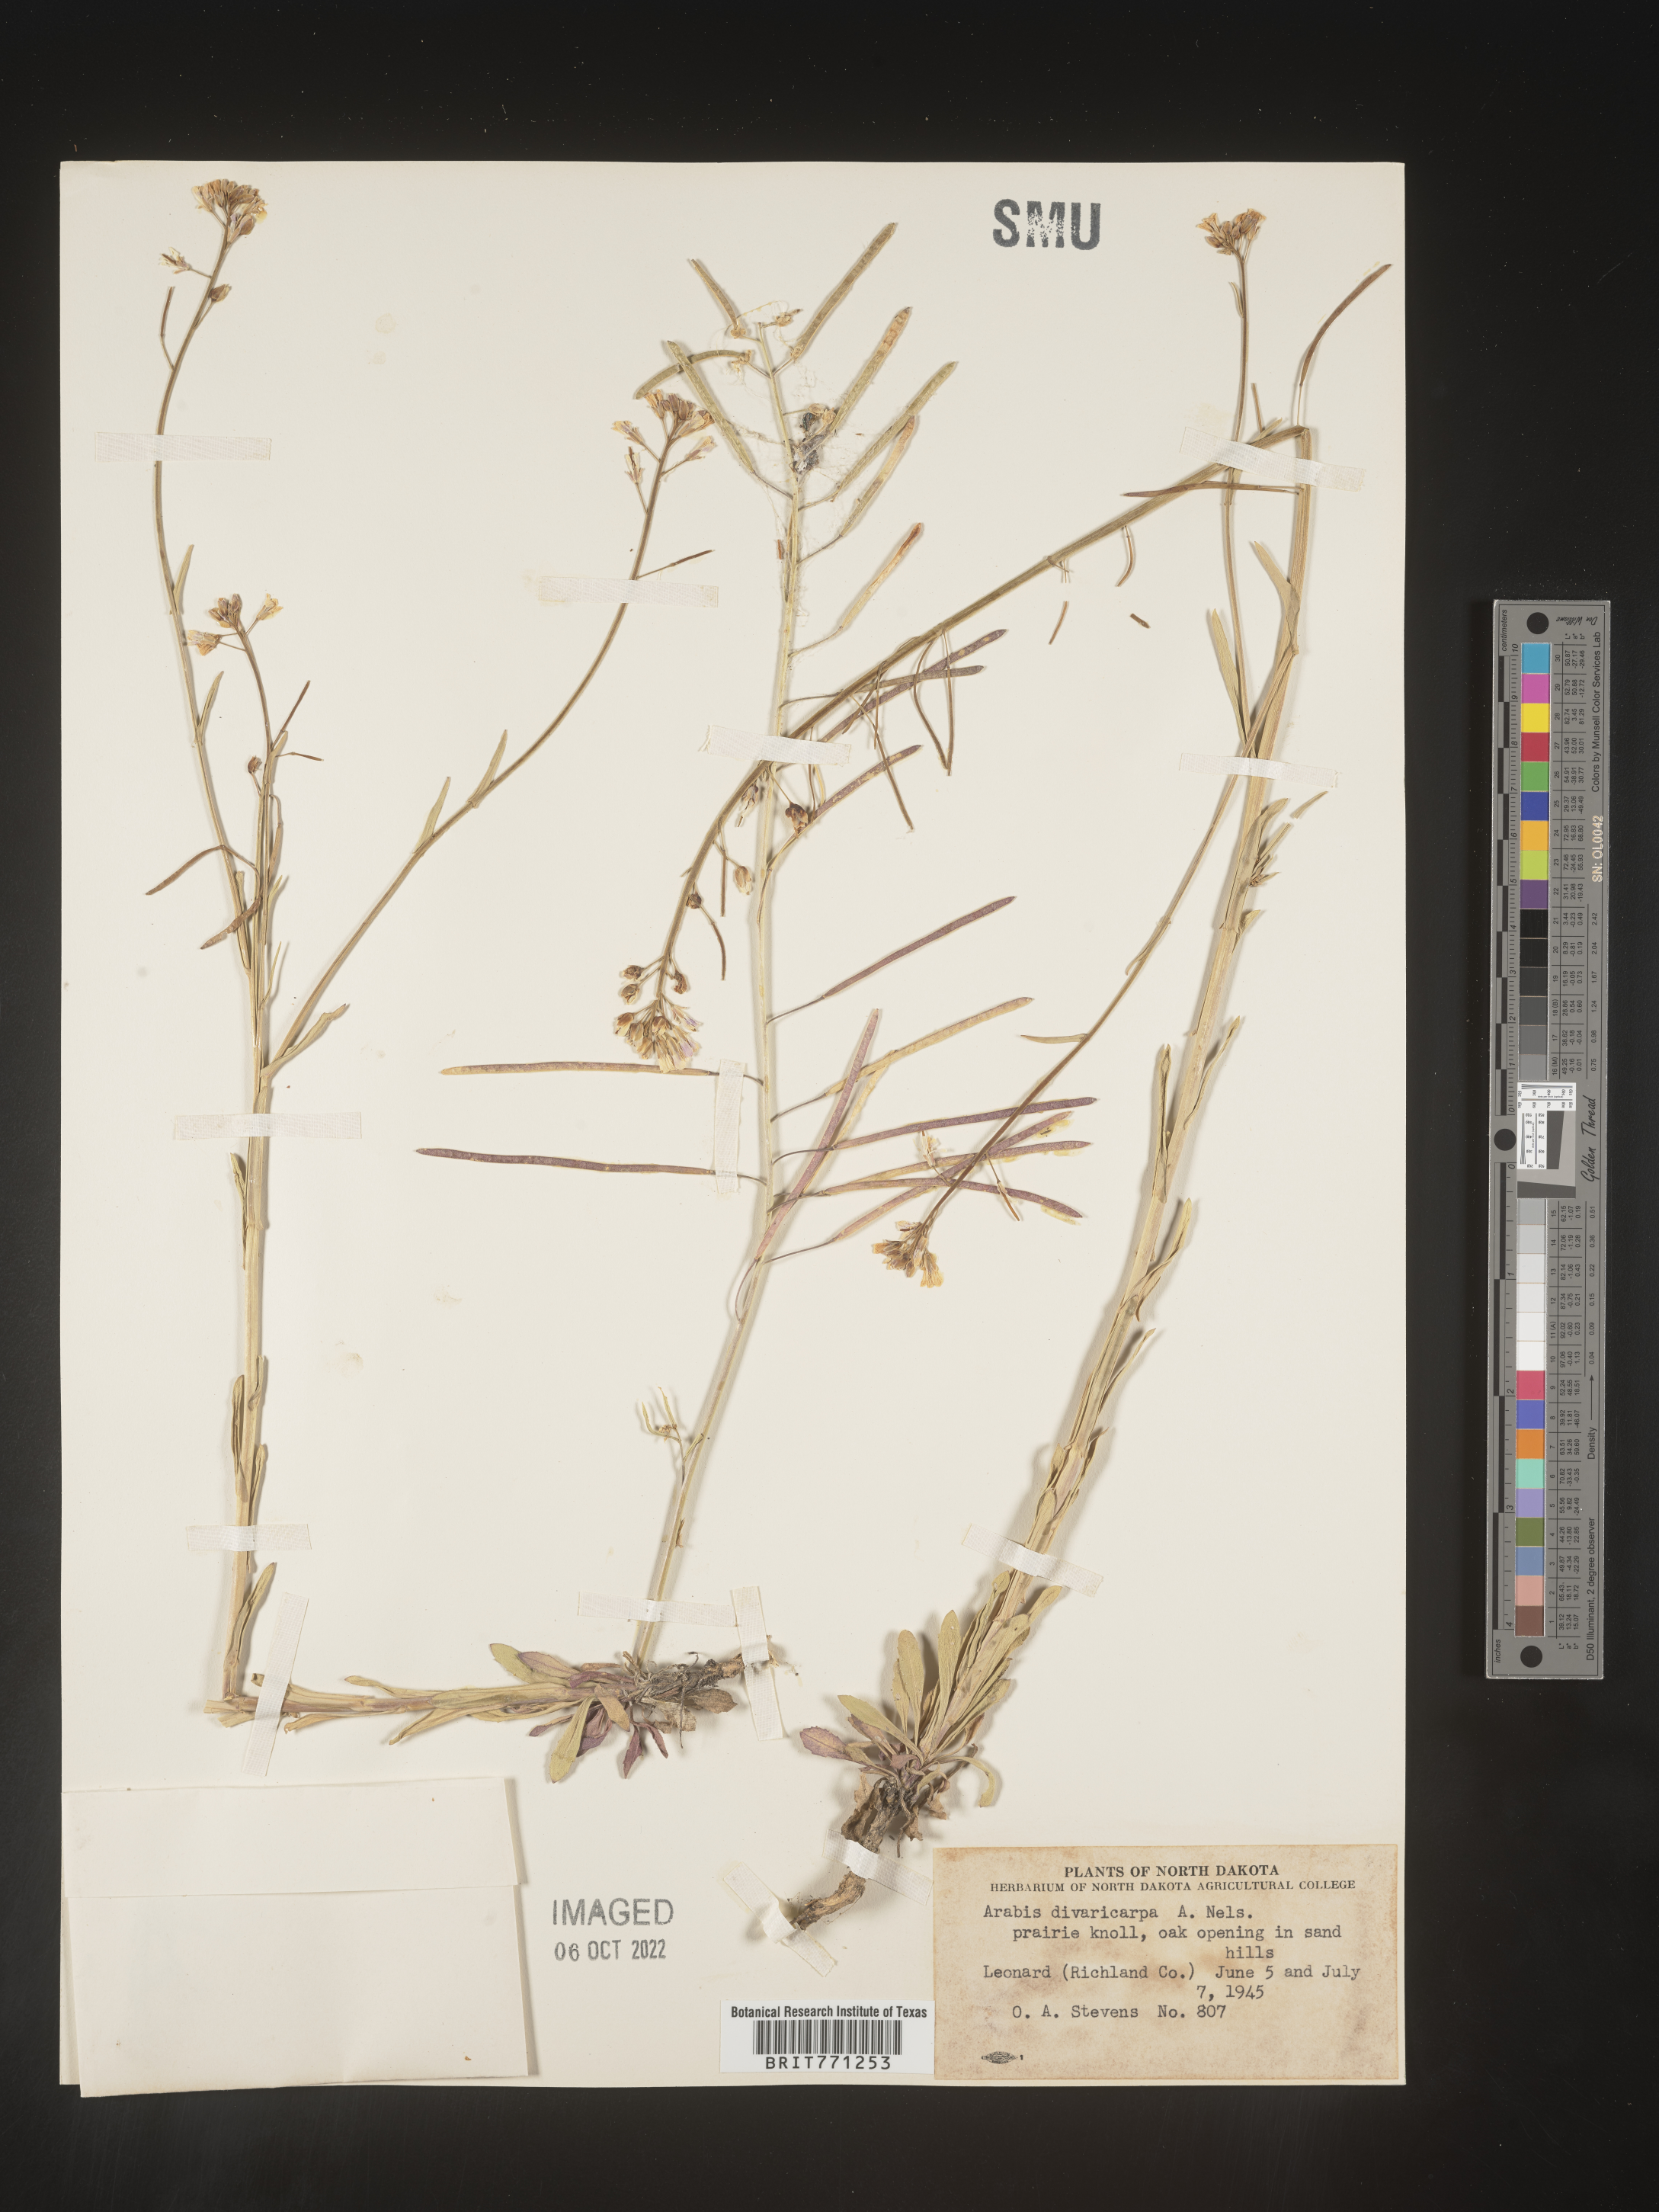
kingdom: Plantae
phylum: Tracheophyta
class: Magnoliopsida
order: Brassicales
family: Brassicaceae
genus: Boechera
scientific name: Boechera divaricarpa
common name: Divaricate rockcress
